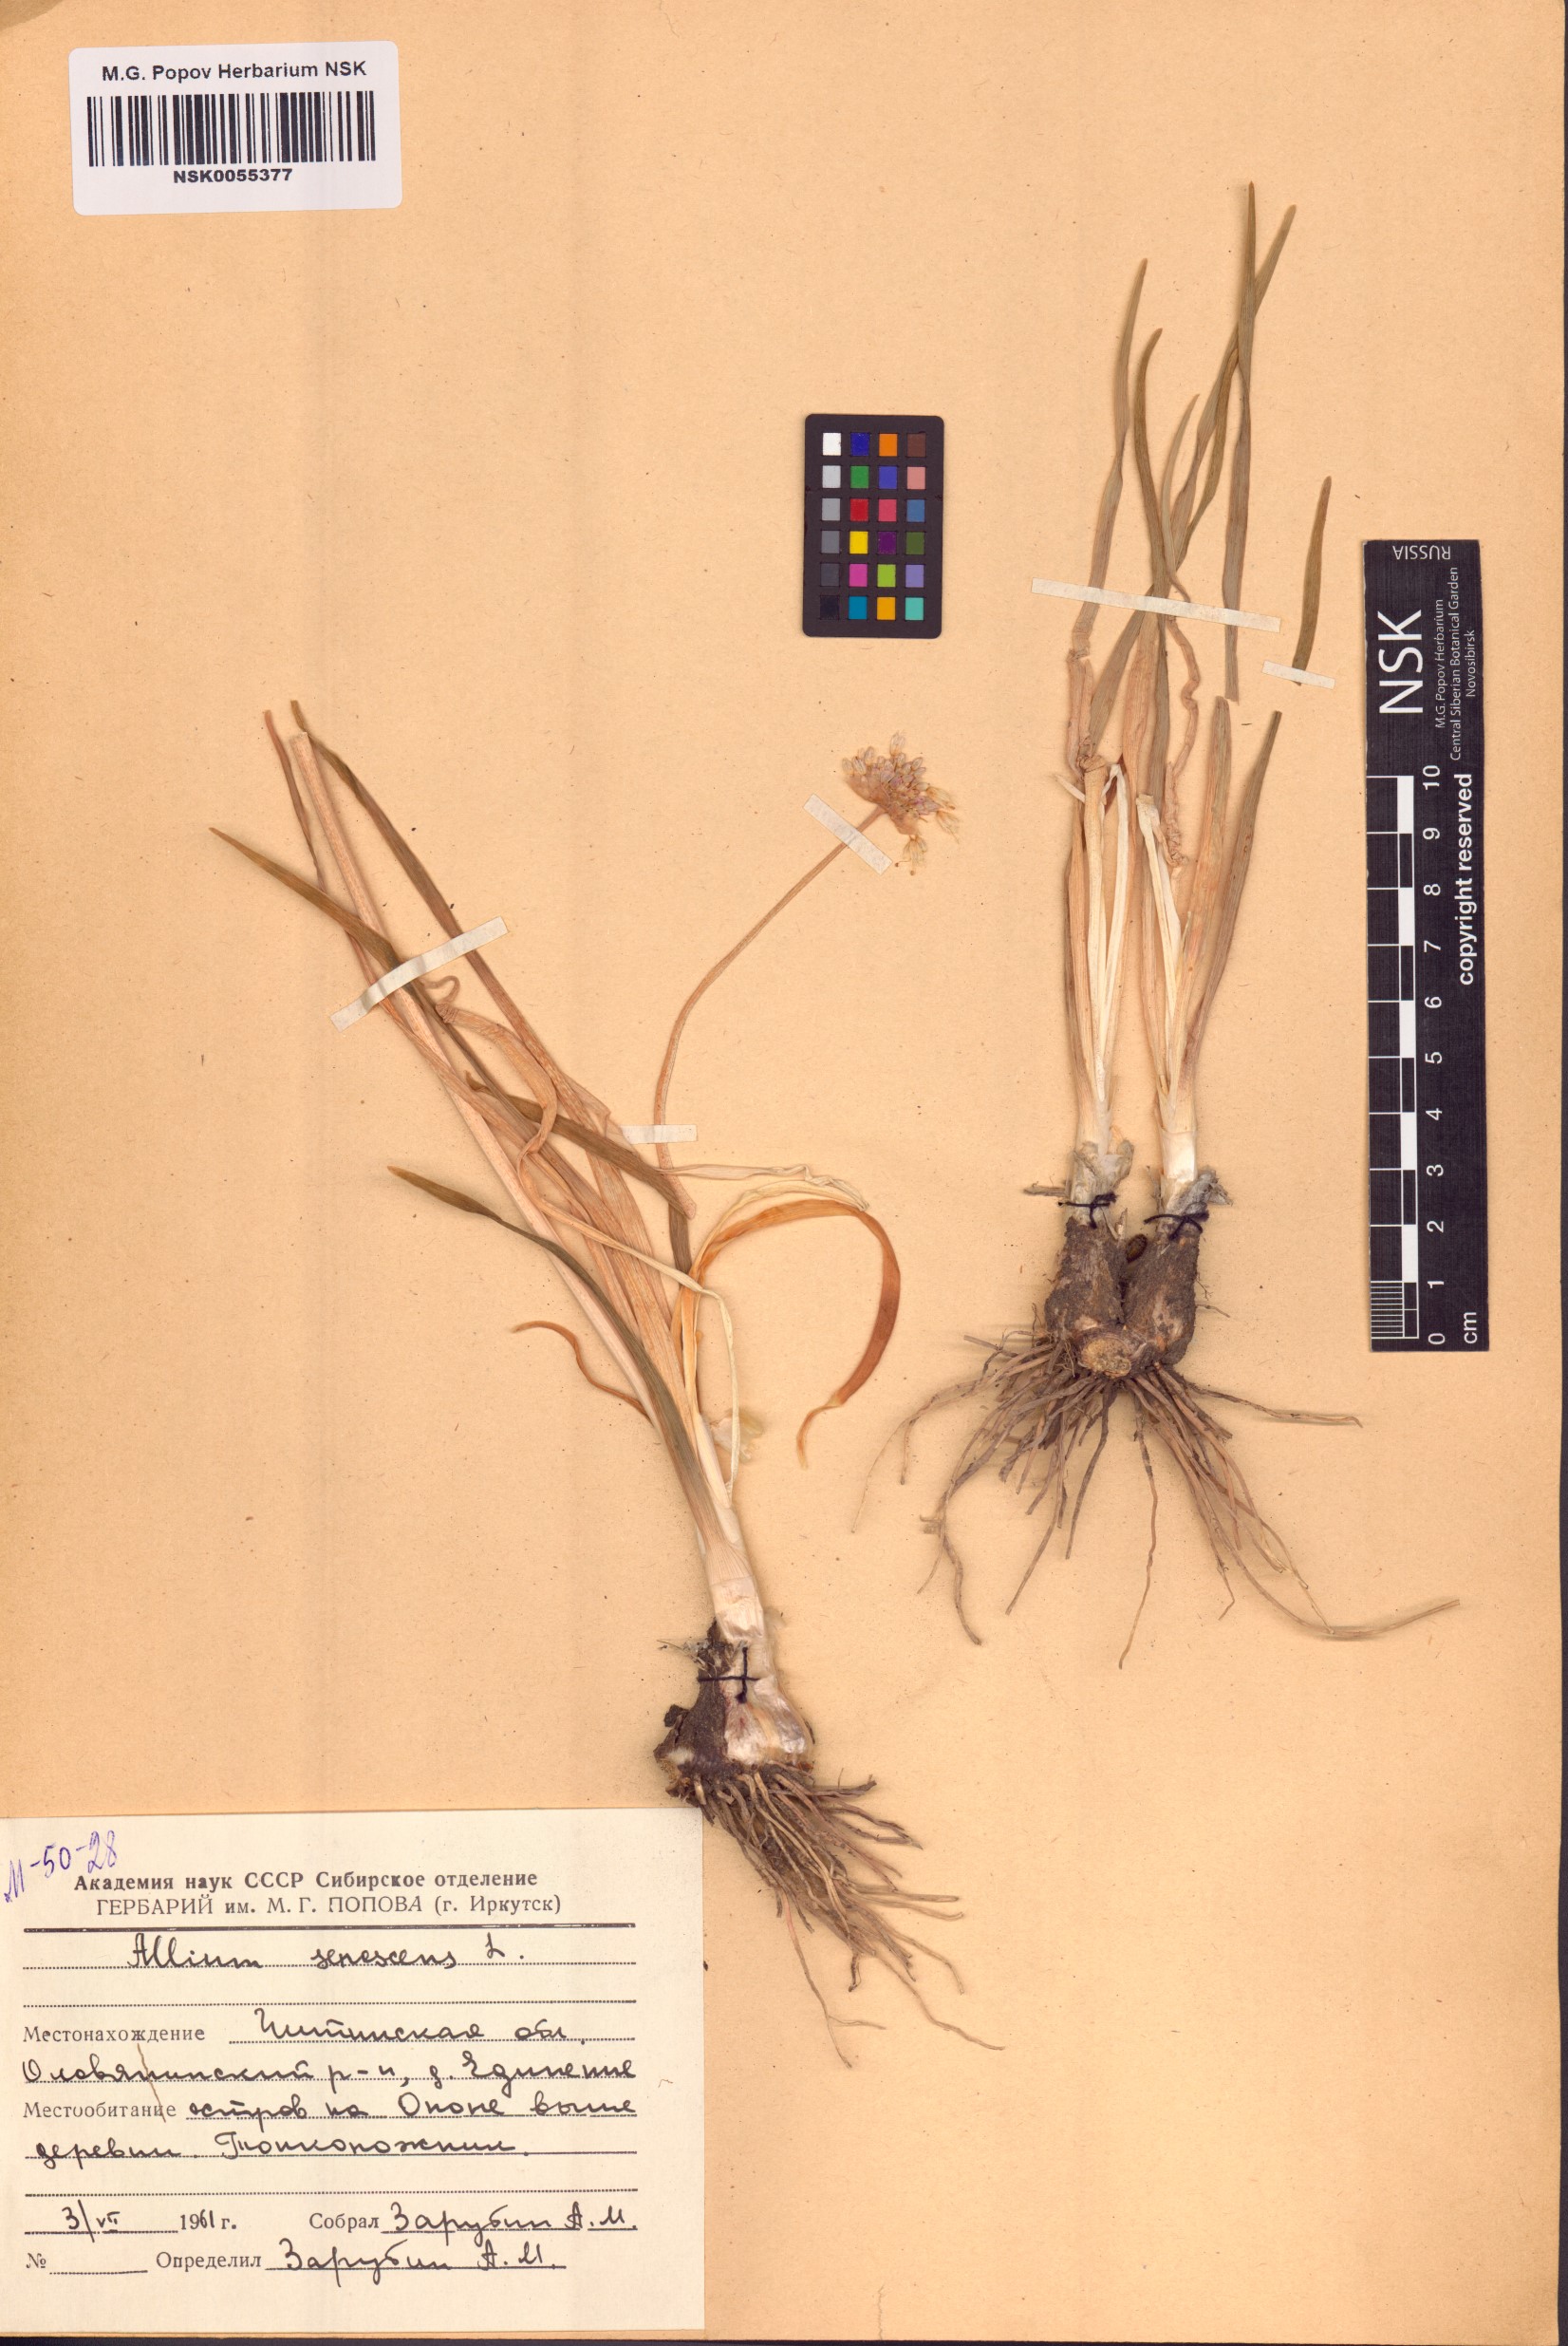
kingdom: Plantae
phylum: Tracheophyta
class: Liliopsida
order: Asparagales
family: Amaryllidaceae
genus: Allium
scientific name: Allium senescens
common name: German garlic
